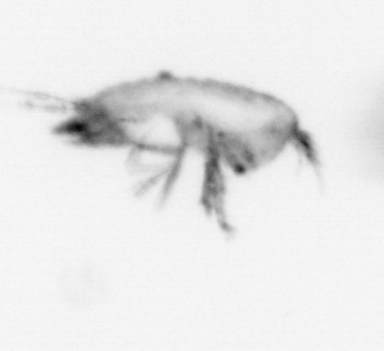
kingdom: Animalia
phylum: Annelida
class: Polychaeta
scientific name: Polychaeta
